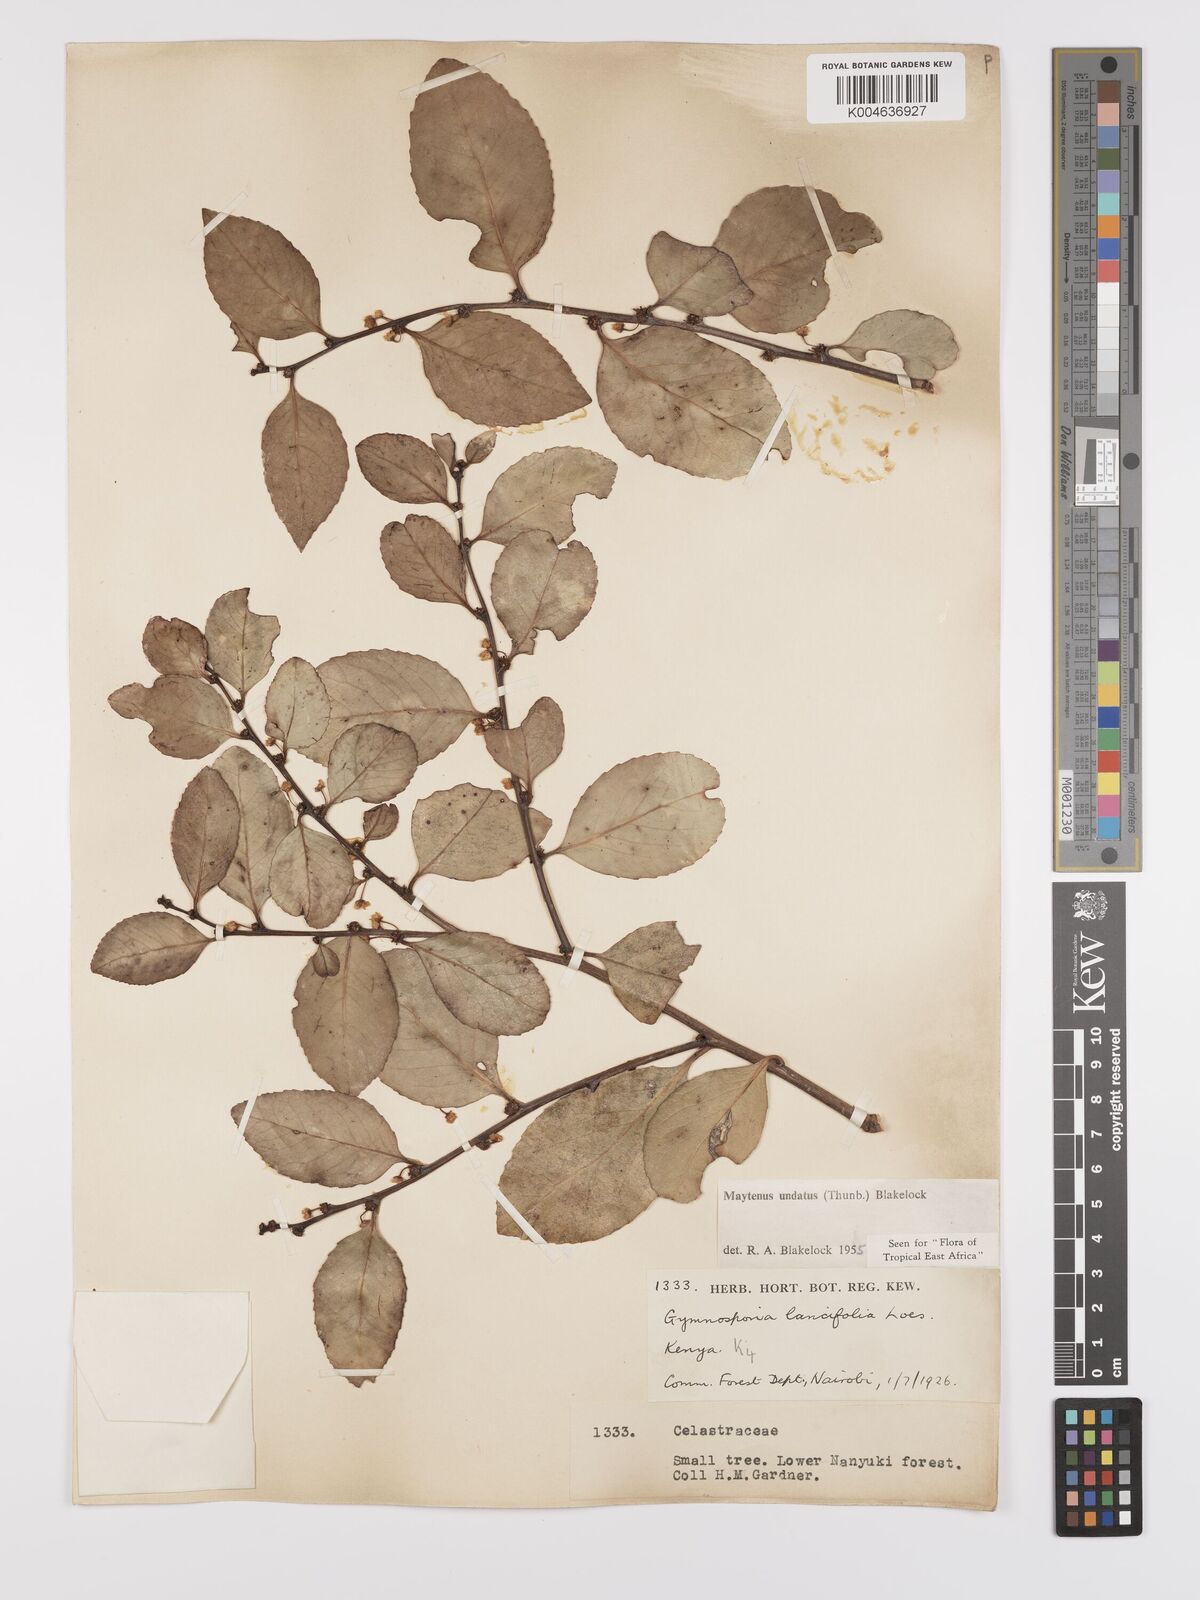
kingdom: Plantae
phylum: Tracheophyta
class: Magnoliopsida
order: Celastrales
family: Celastraceae
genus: Gymnosporia
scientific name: Gymnosporia undata
